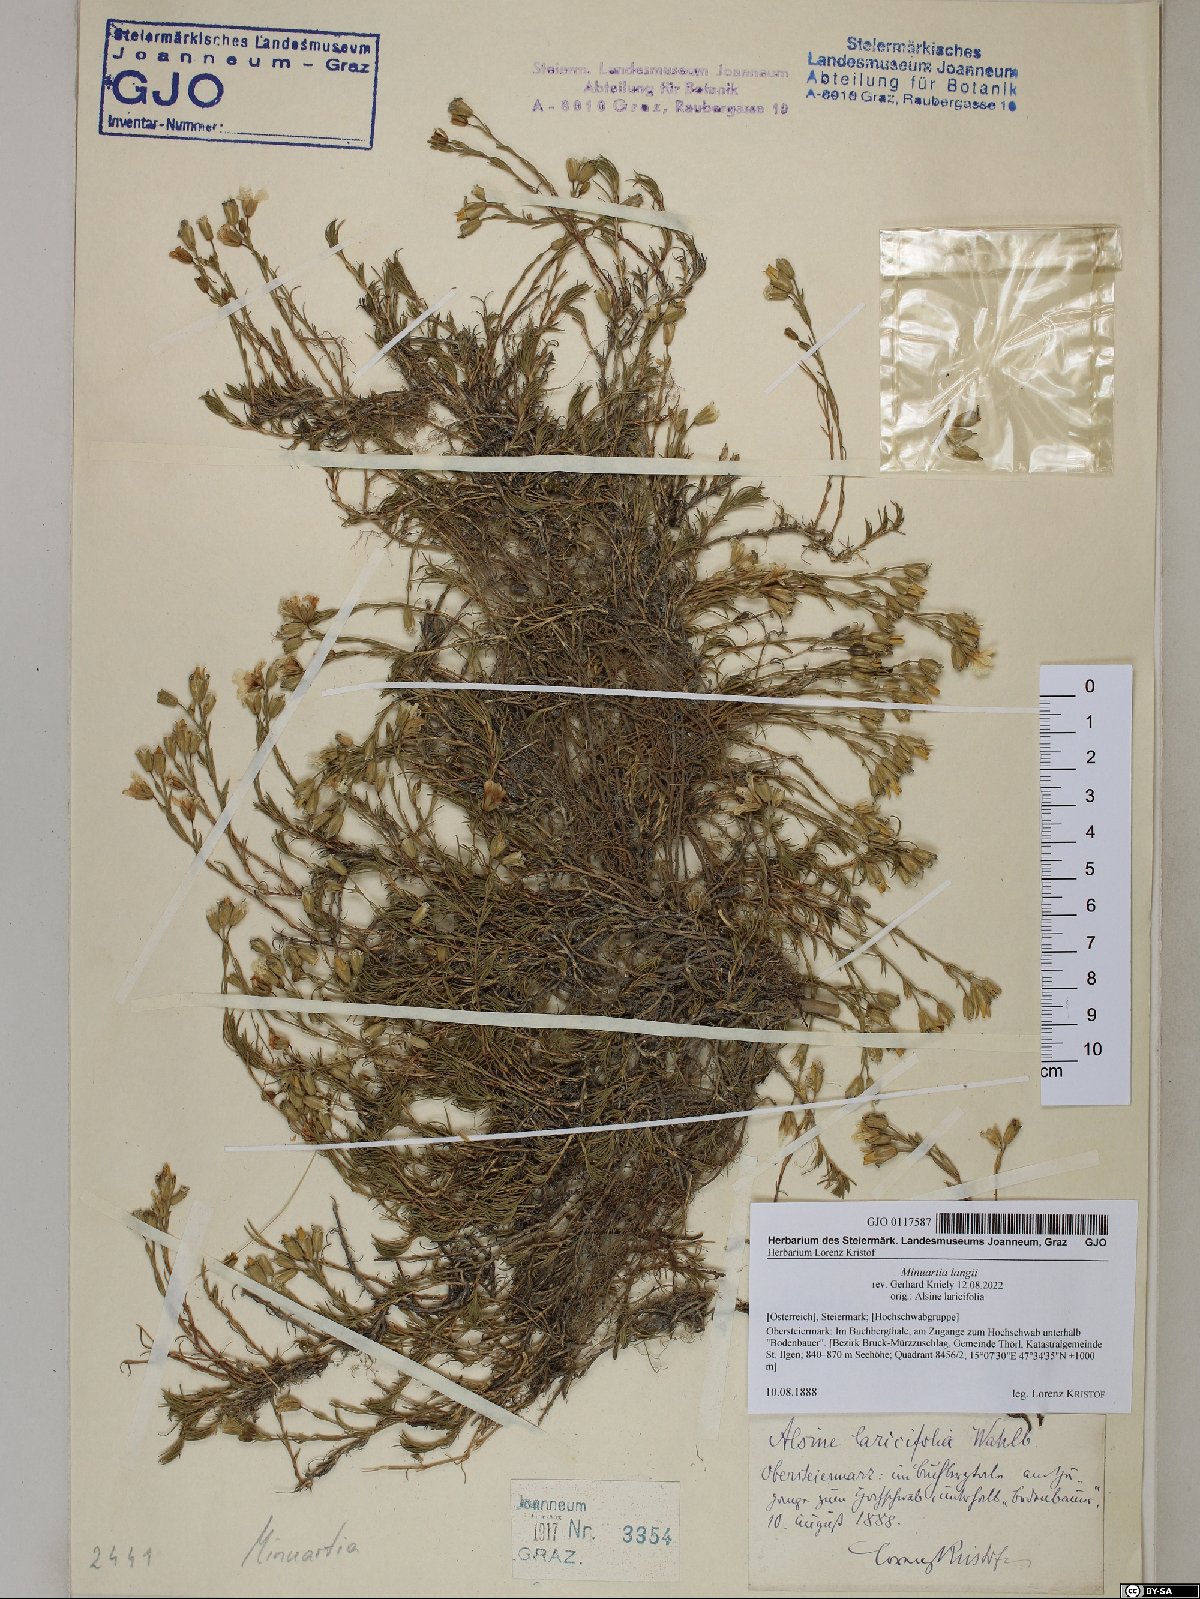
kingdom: Plantae
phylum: Tracheophyta
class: Magnoliopsida
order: Caryophyllales
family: Caryophyllaceae
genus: Cherleria
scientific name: Cherleria langii
